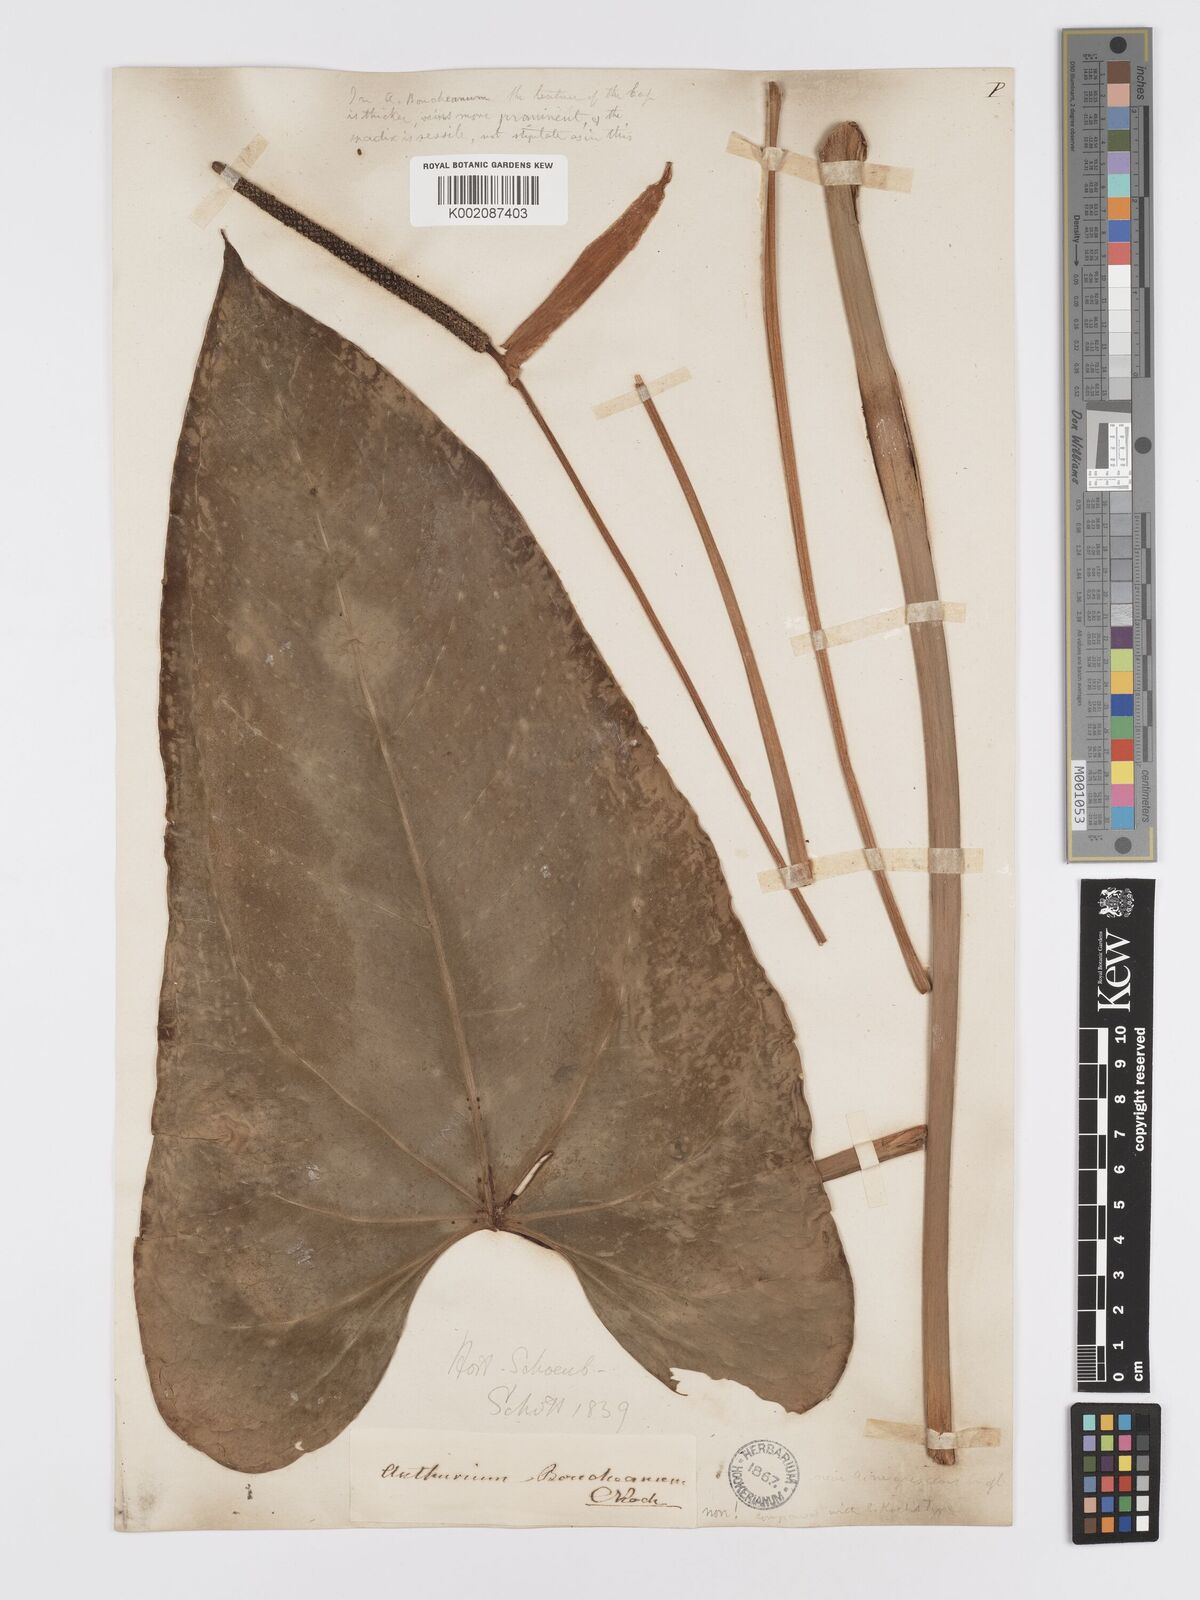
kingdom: Plantae
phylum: Tracheophyta
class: Liliopsida
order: Alismatales
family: Araceae
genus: Anthurium
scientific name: Anthurium cartilagineum
